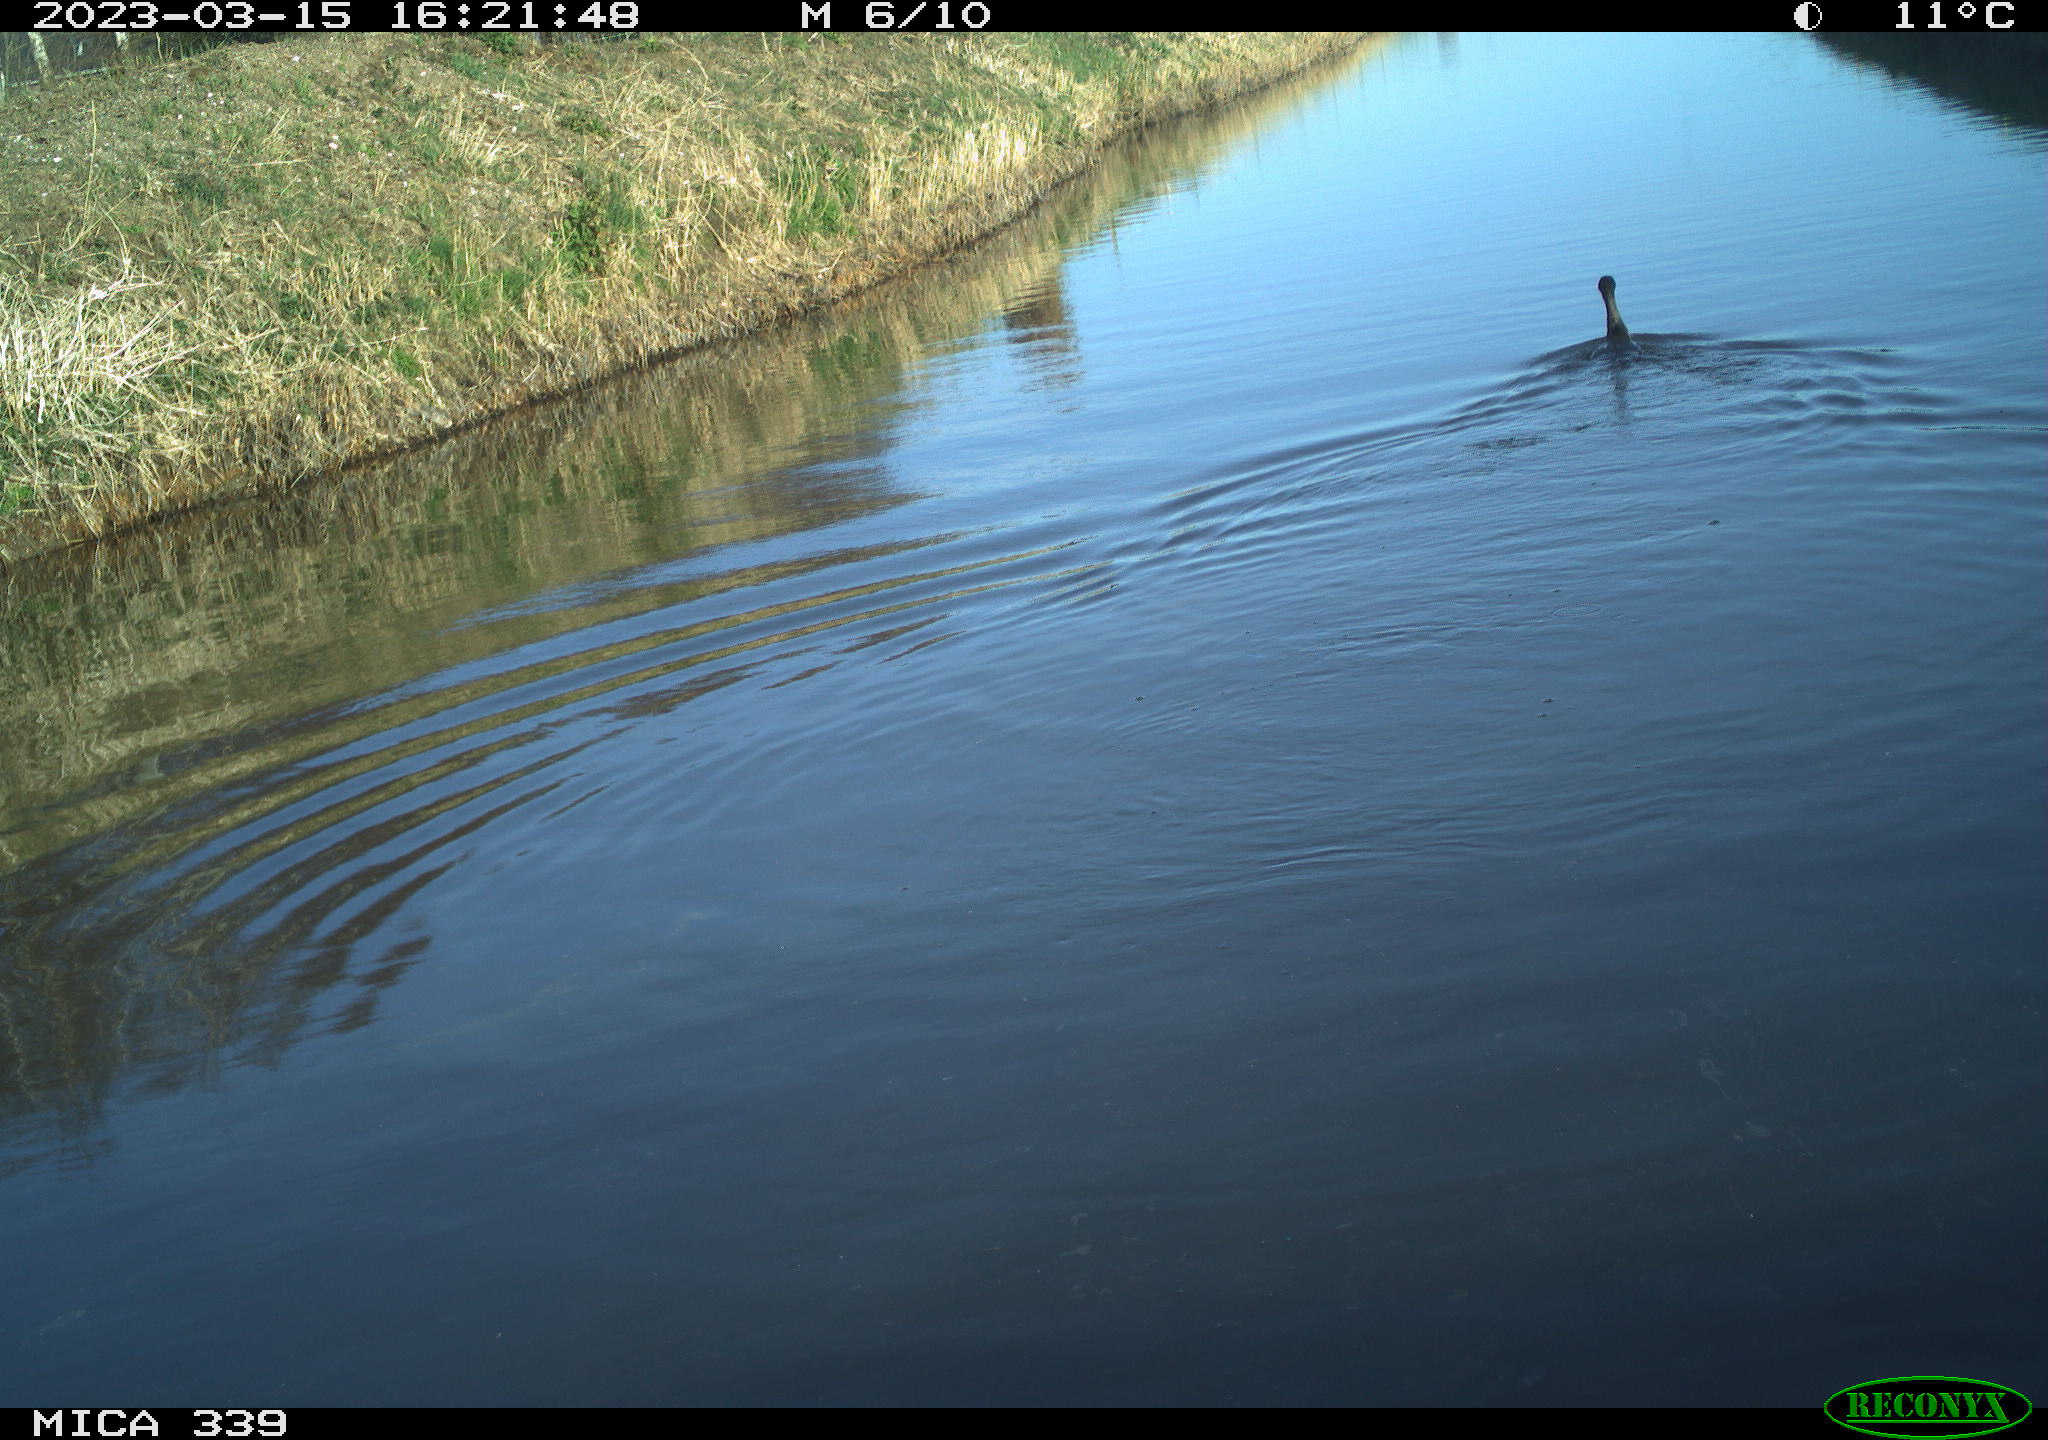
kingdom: Animalia
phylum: Chordata
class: Aves
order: Suliformes
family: Phalacrocoracidae
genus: Phalacrocorax
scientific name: Phalacrocorax carbo
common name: Great cormorant
